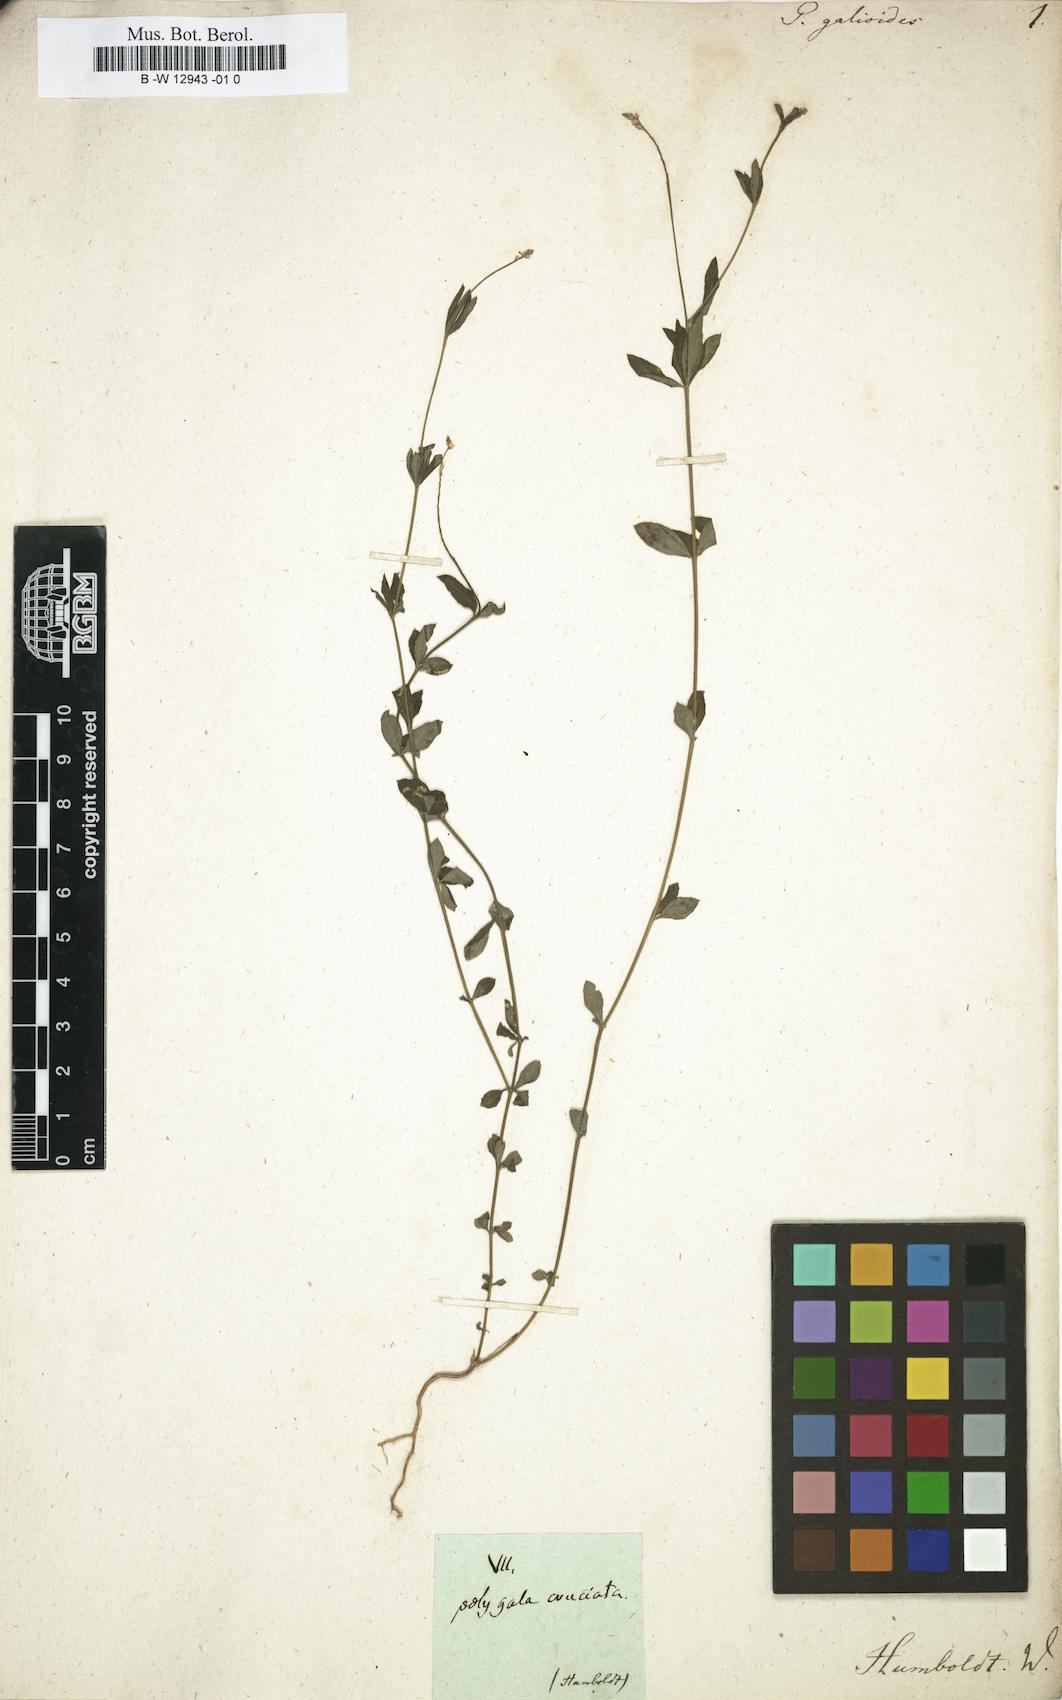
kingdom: Plantae
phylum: Tracheophyta
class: Magnoliopsida
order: Fabales
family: Polygalaceae
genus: Polygala
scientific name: Polygala galioides
